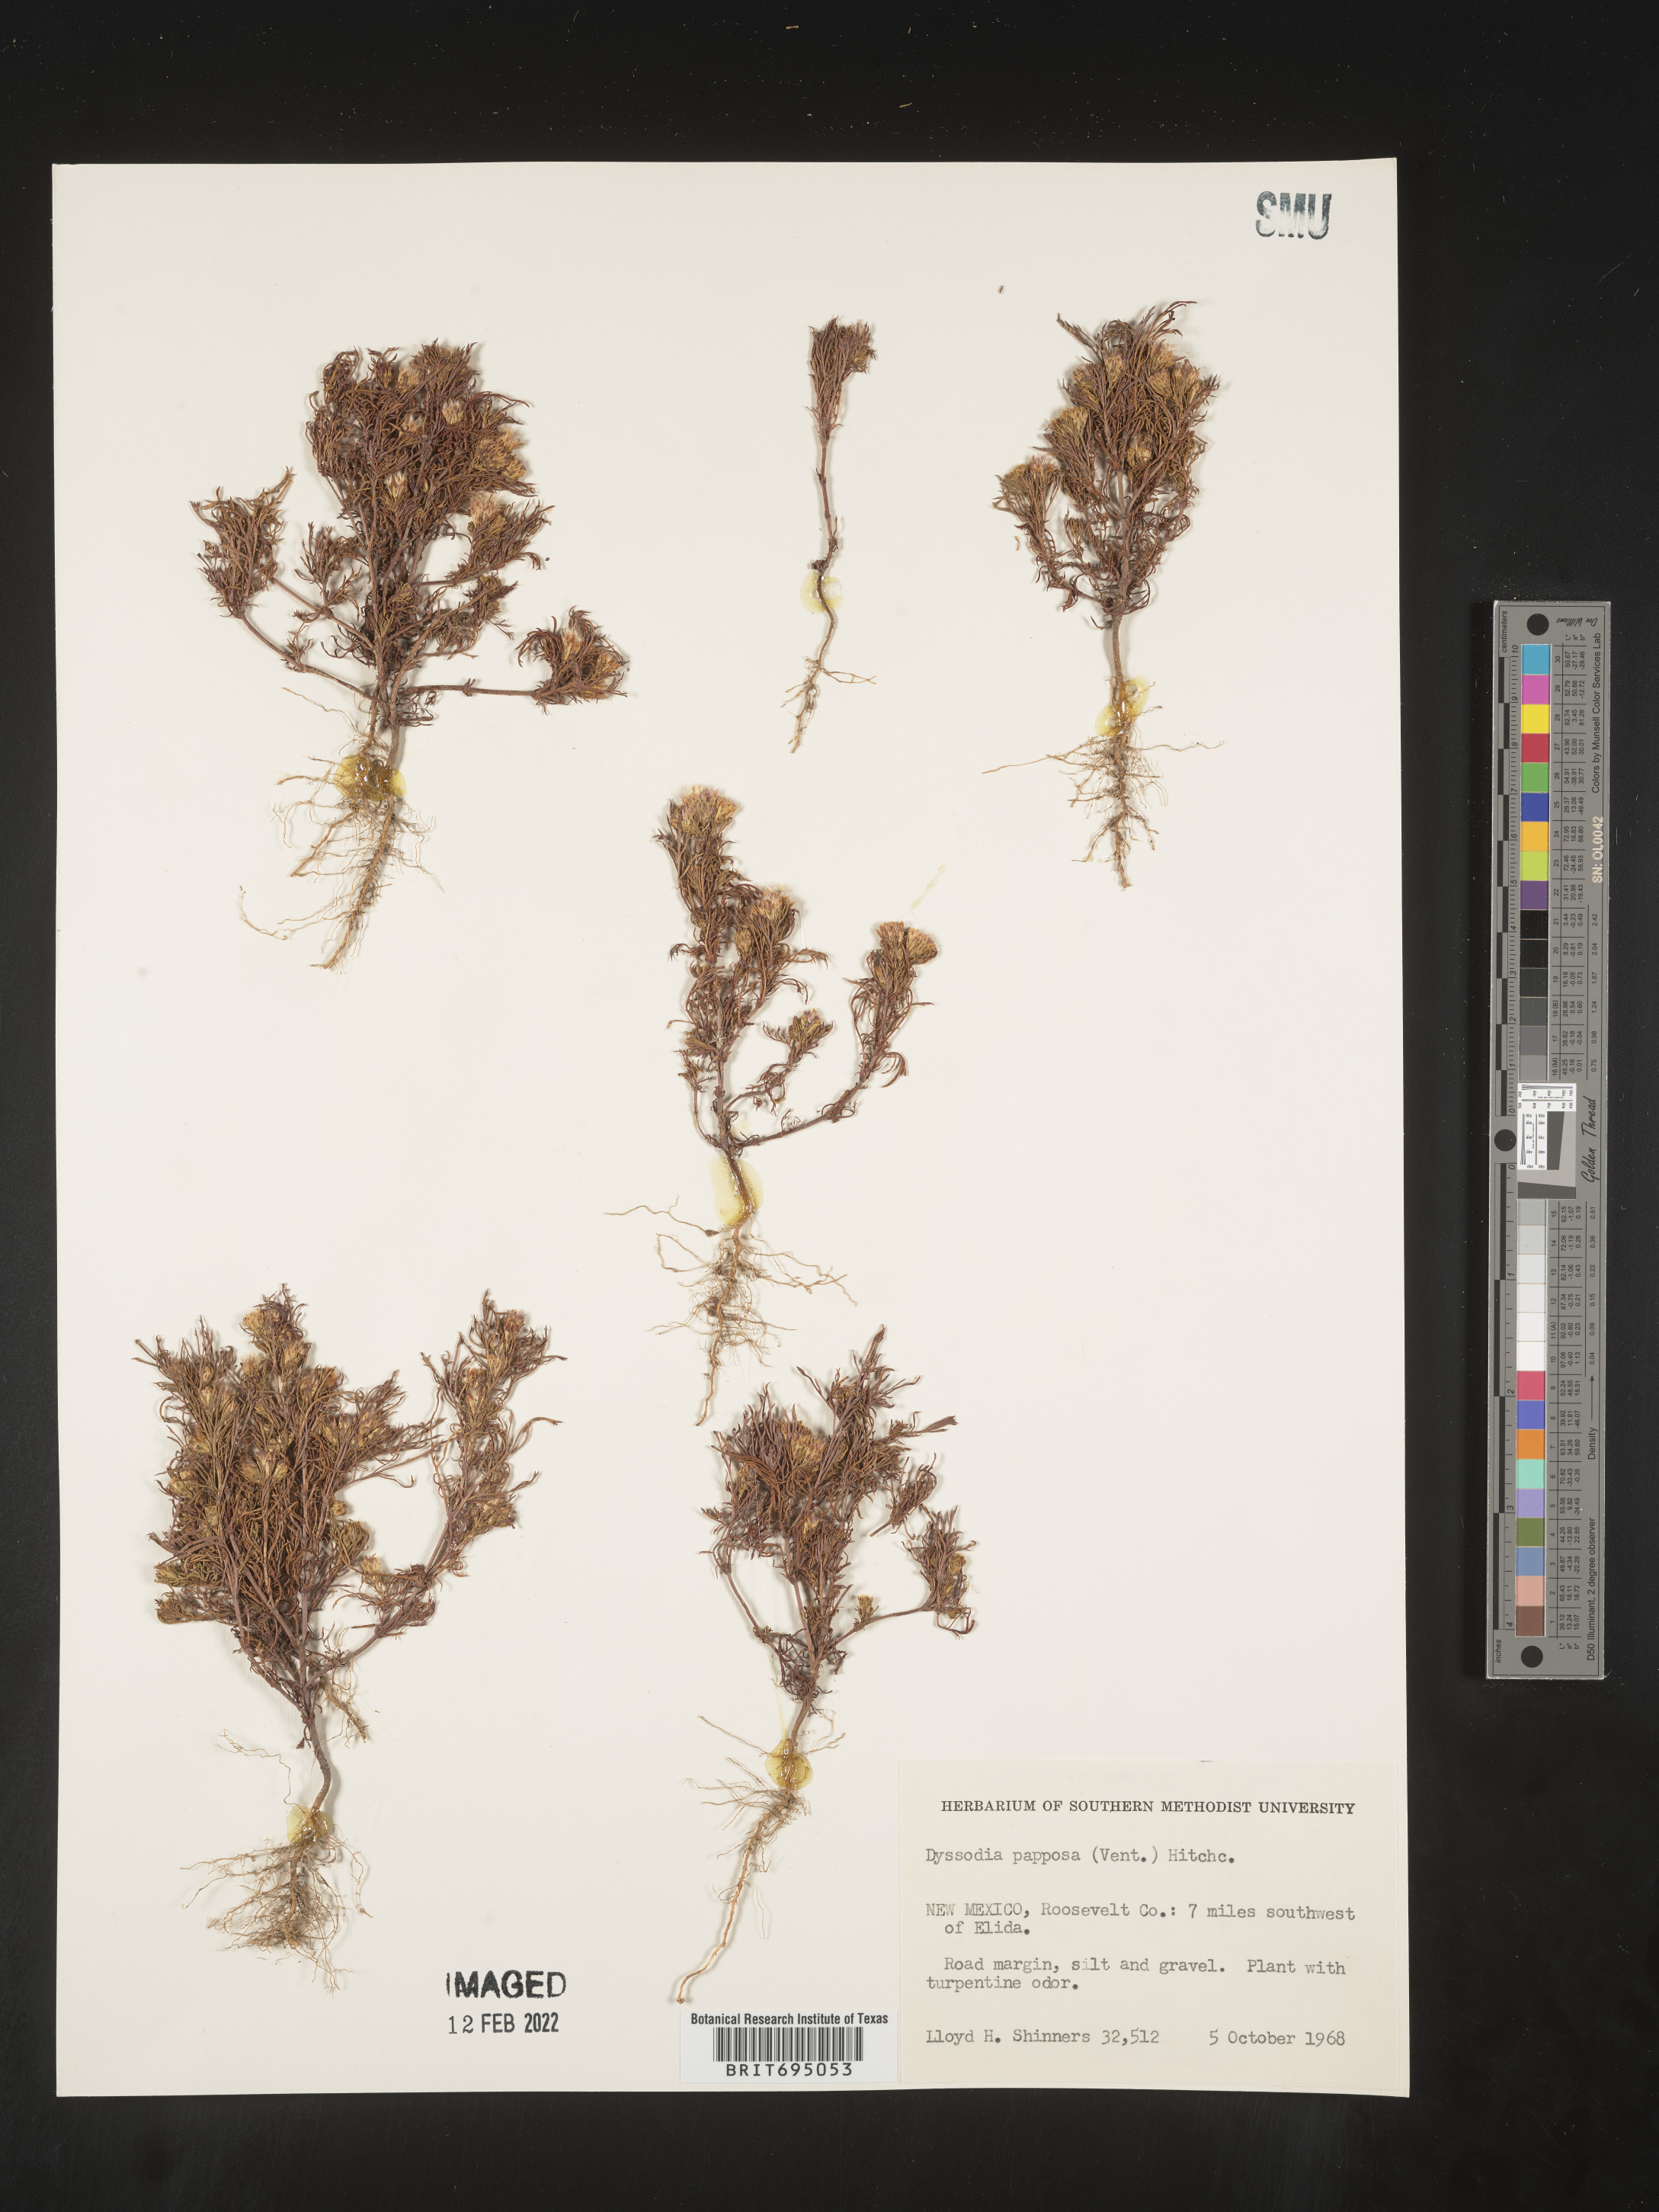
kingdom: Plantae
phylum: Tracheophyta
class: Magnoliopsida
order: Asterales
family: Asteraceae
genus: Dyssodia
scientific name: Dyssodia papposa
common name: Dogweed
